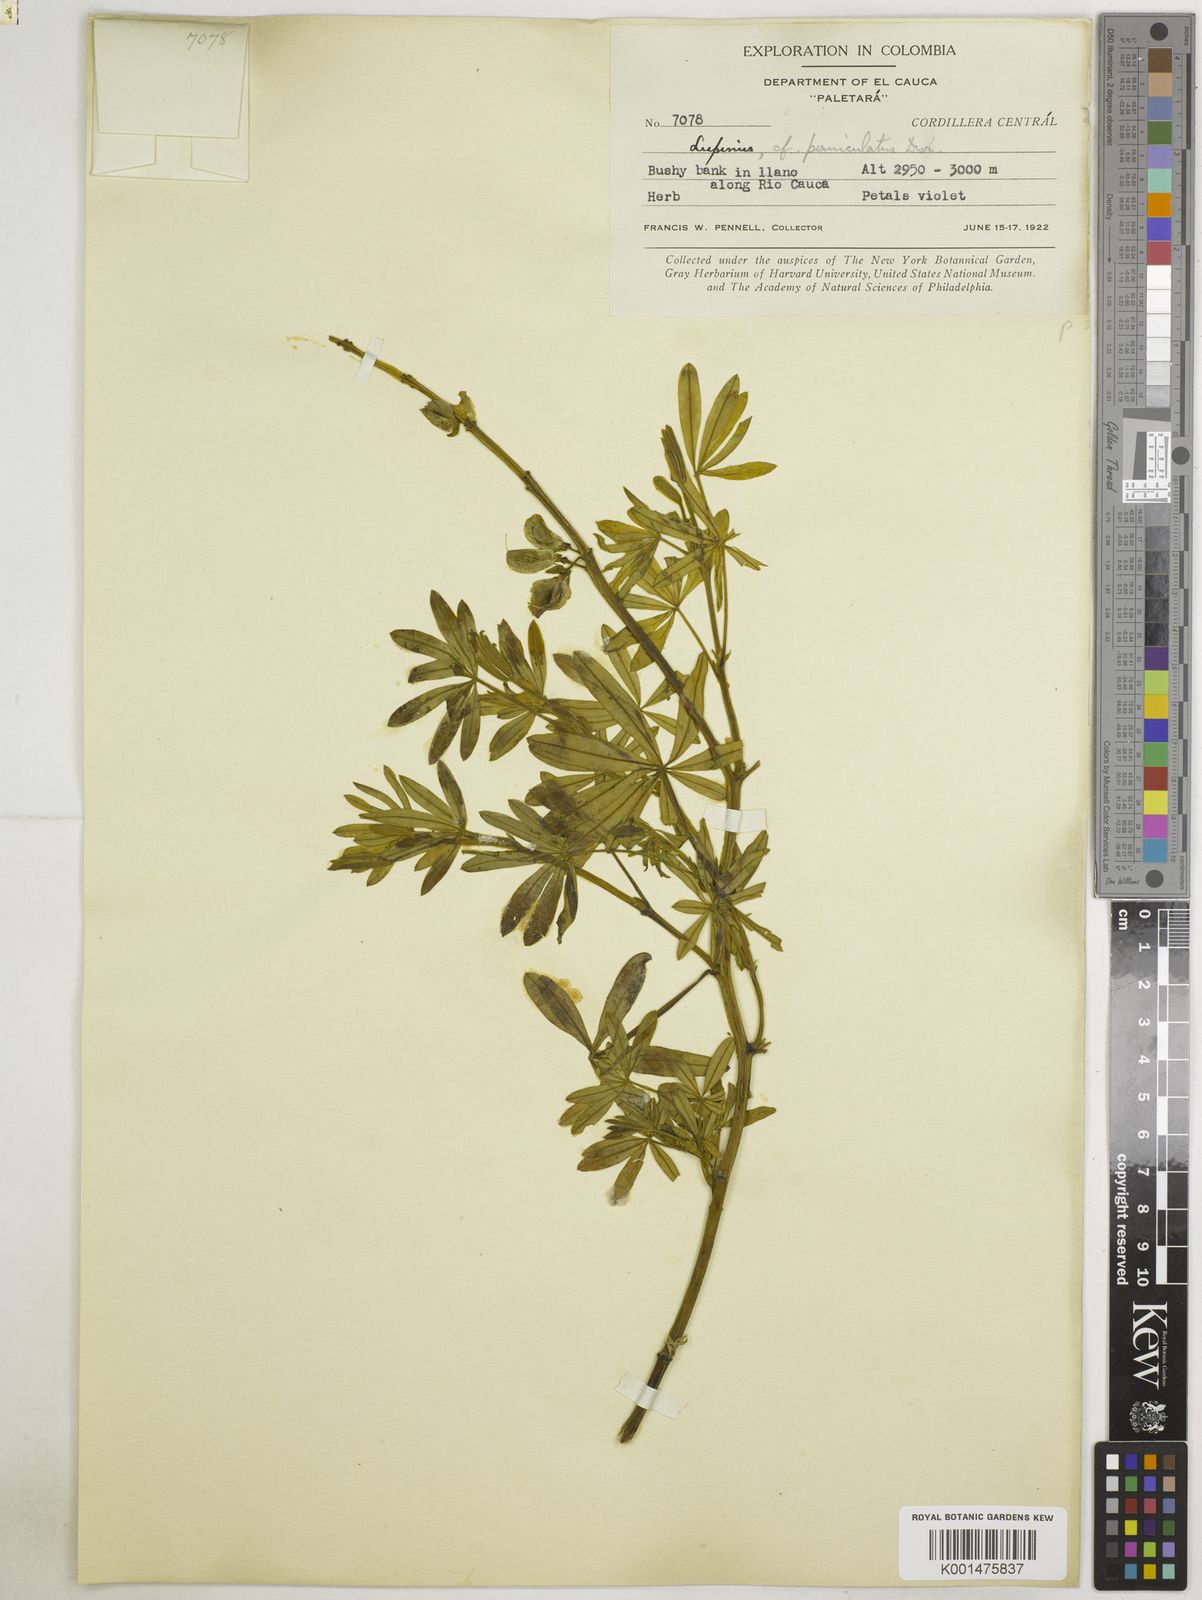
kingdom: Plantae
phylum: Tracheophyta
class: Magnoliopsida
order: Fabales
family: Fabaceae
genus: Lupinus
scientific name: Lupinus paniculatus
